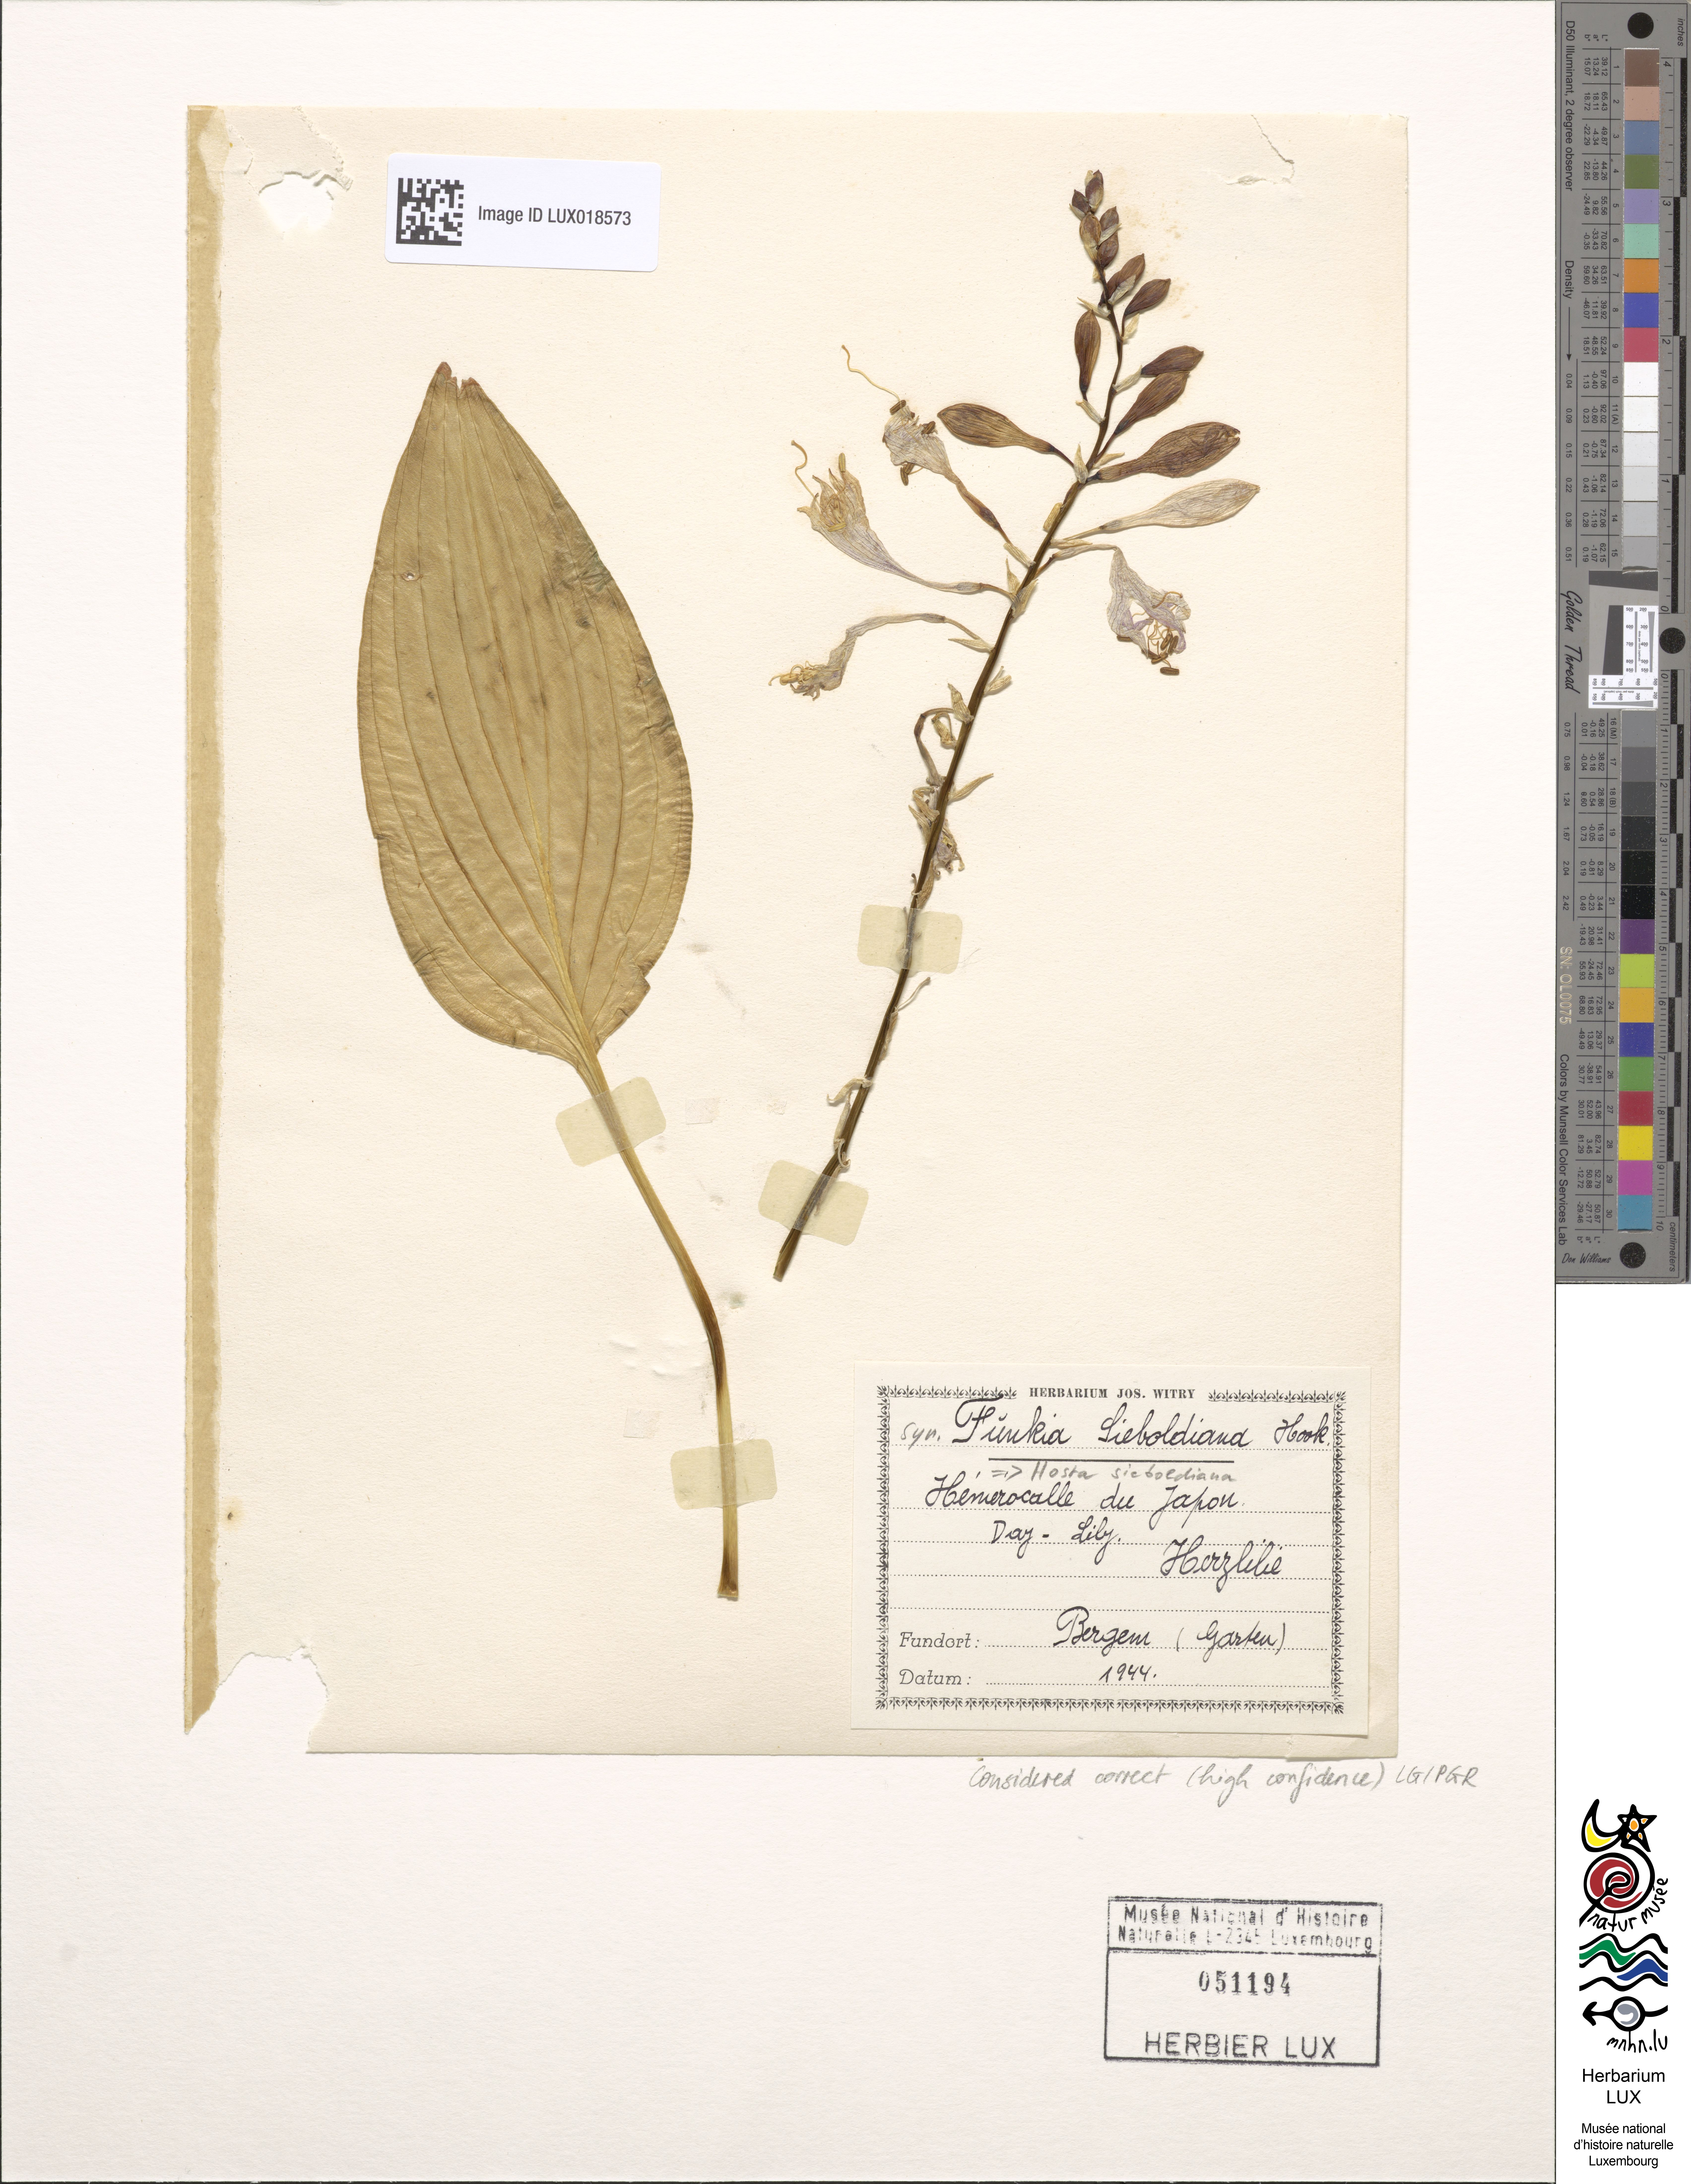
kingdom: Plantae
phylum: Tracheophyta
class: Liliopsida
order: Asparagales
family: Asparagaceae
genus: Hosta
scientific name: Hosta sieboldiana
